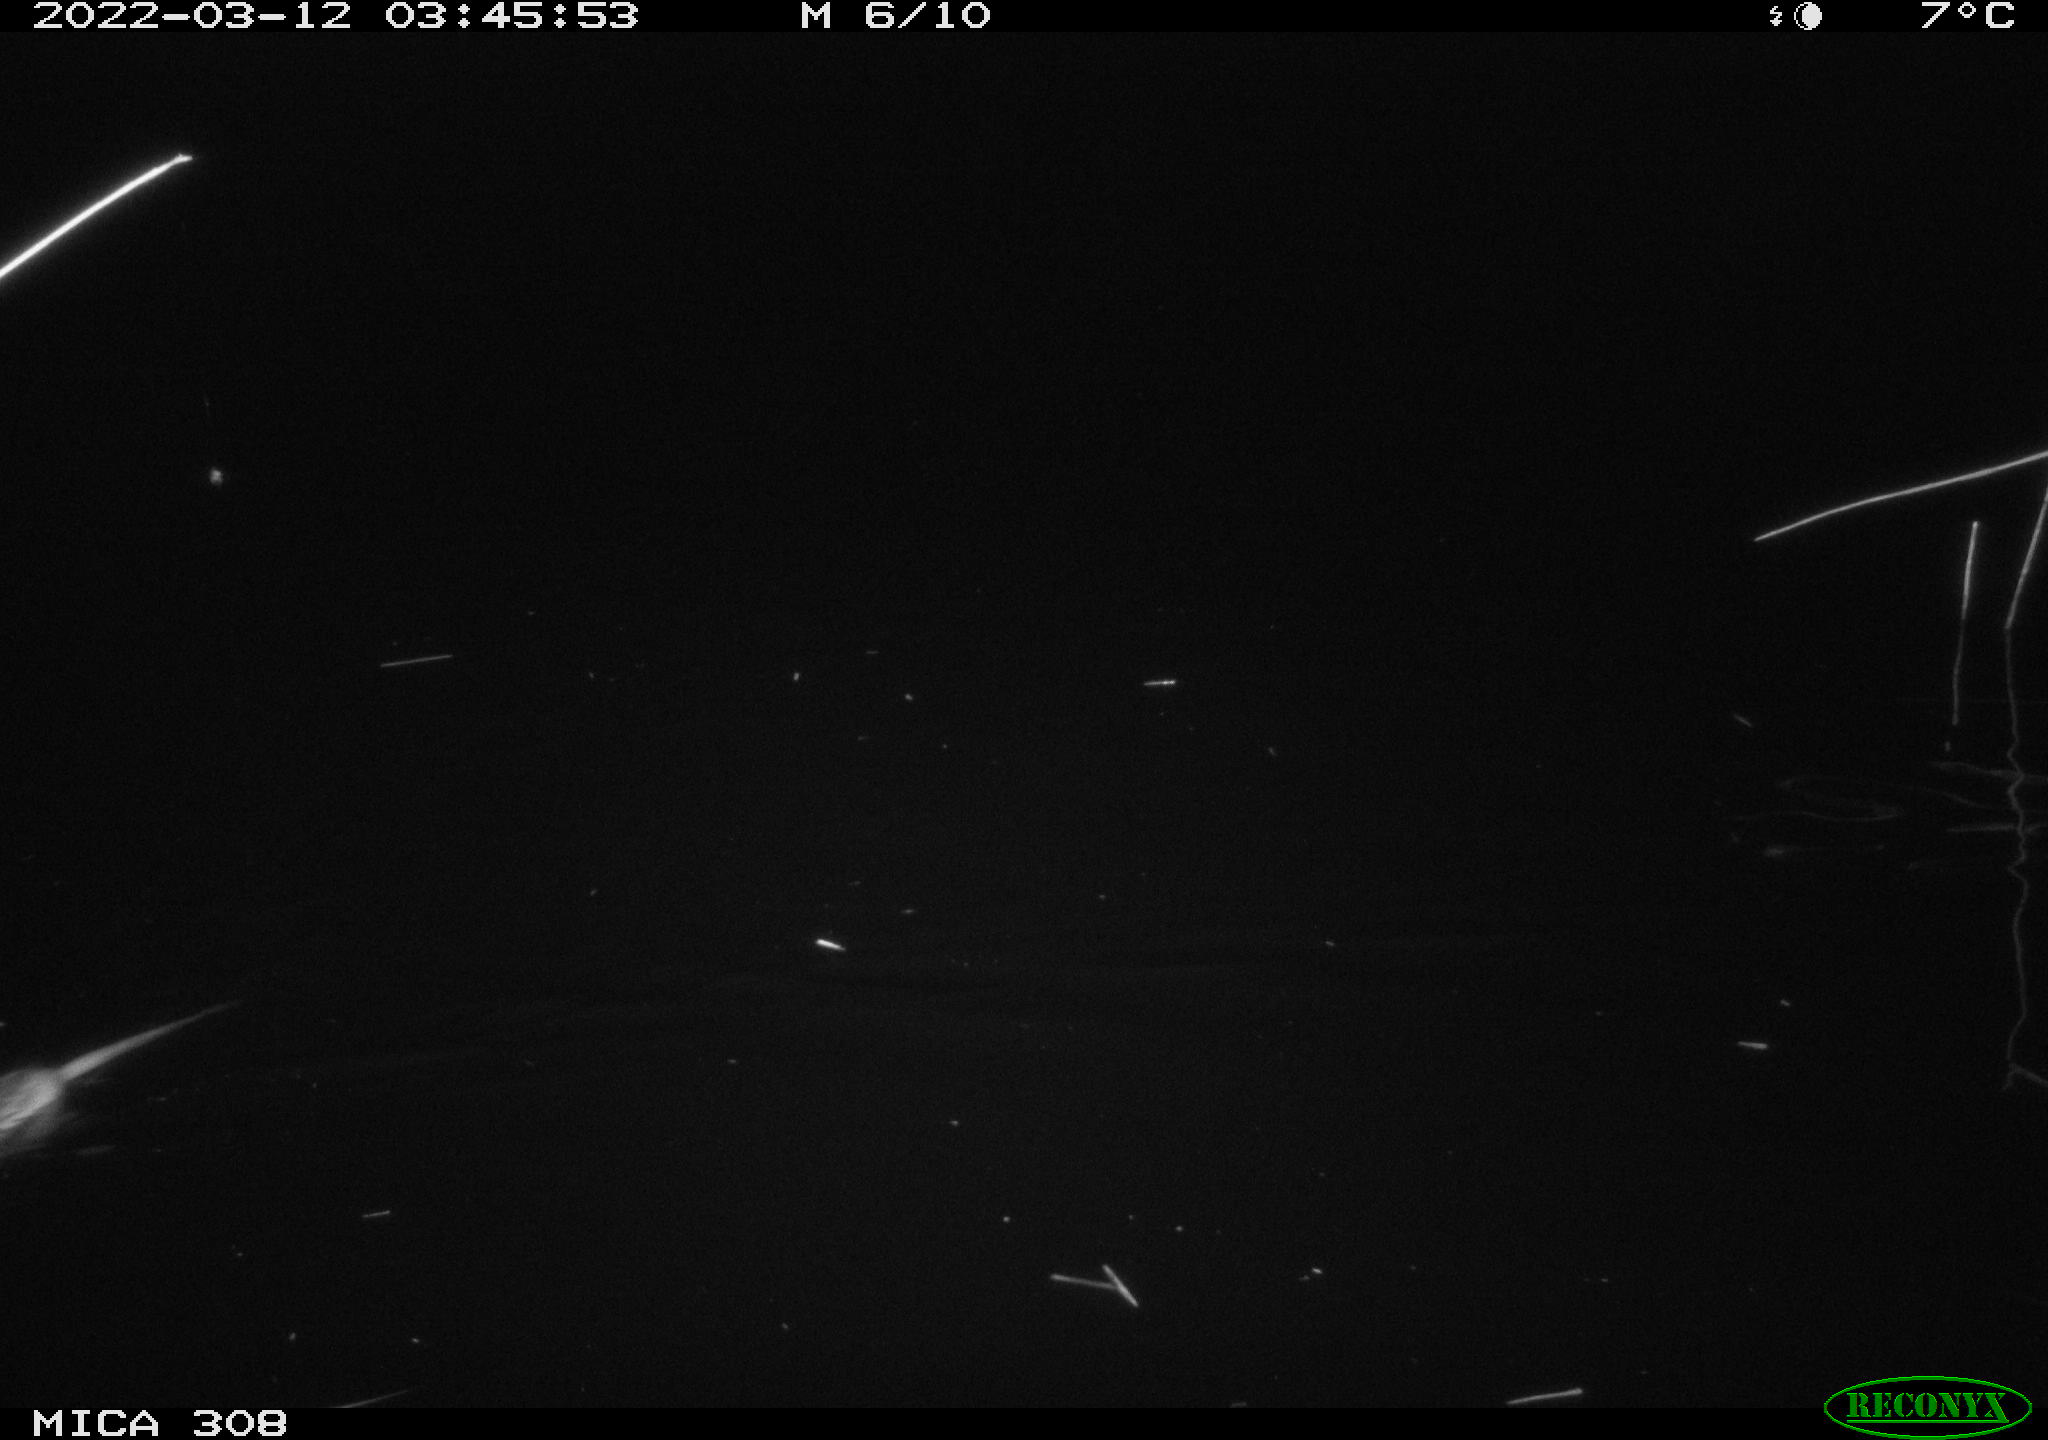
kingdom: Animalia
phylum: Chordata
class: Mammalia
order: Rodentia
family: Cricetidae
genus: Ondatra
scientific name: Ondatra zibethicus
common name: Muskrat
